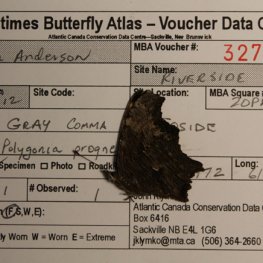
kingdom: Animalia
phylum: Arthropoda
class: Insecta
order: Lepidoptera
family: Nymphalidae
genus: Polygonia
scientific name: Polygonia progne
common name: Gray Comma
